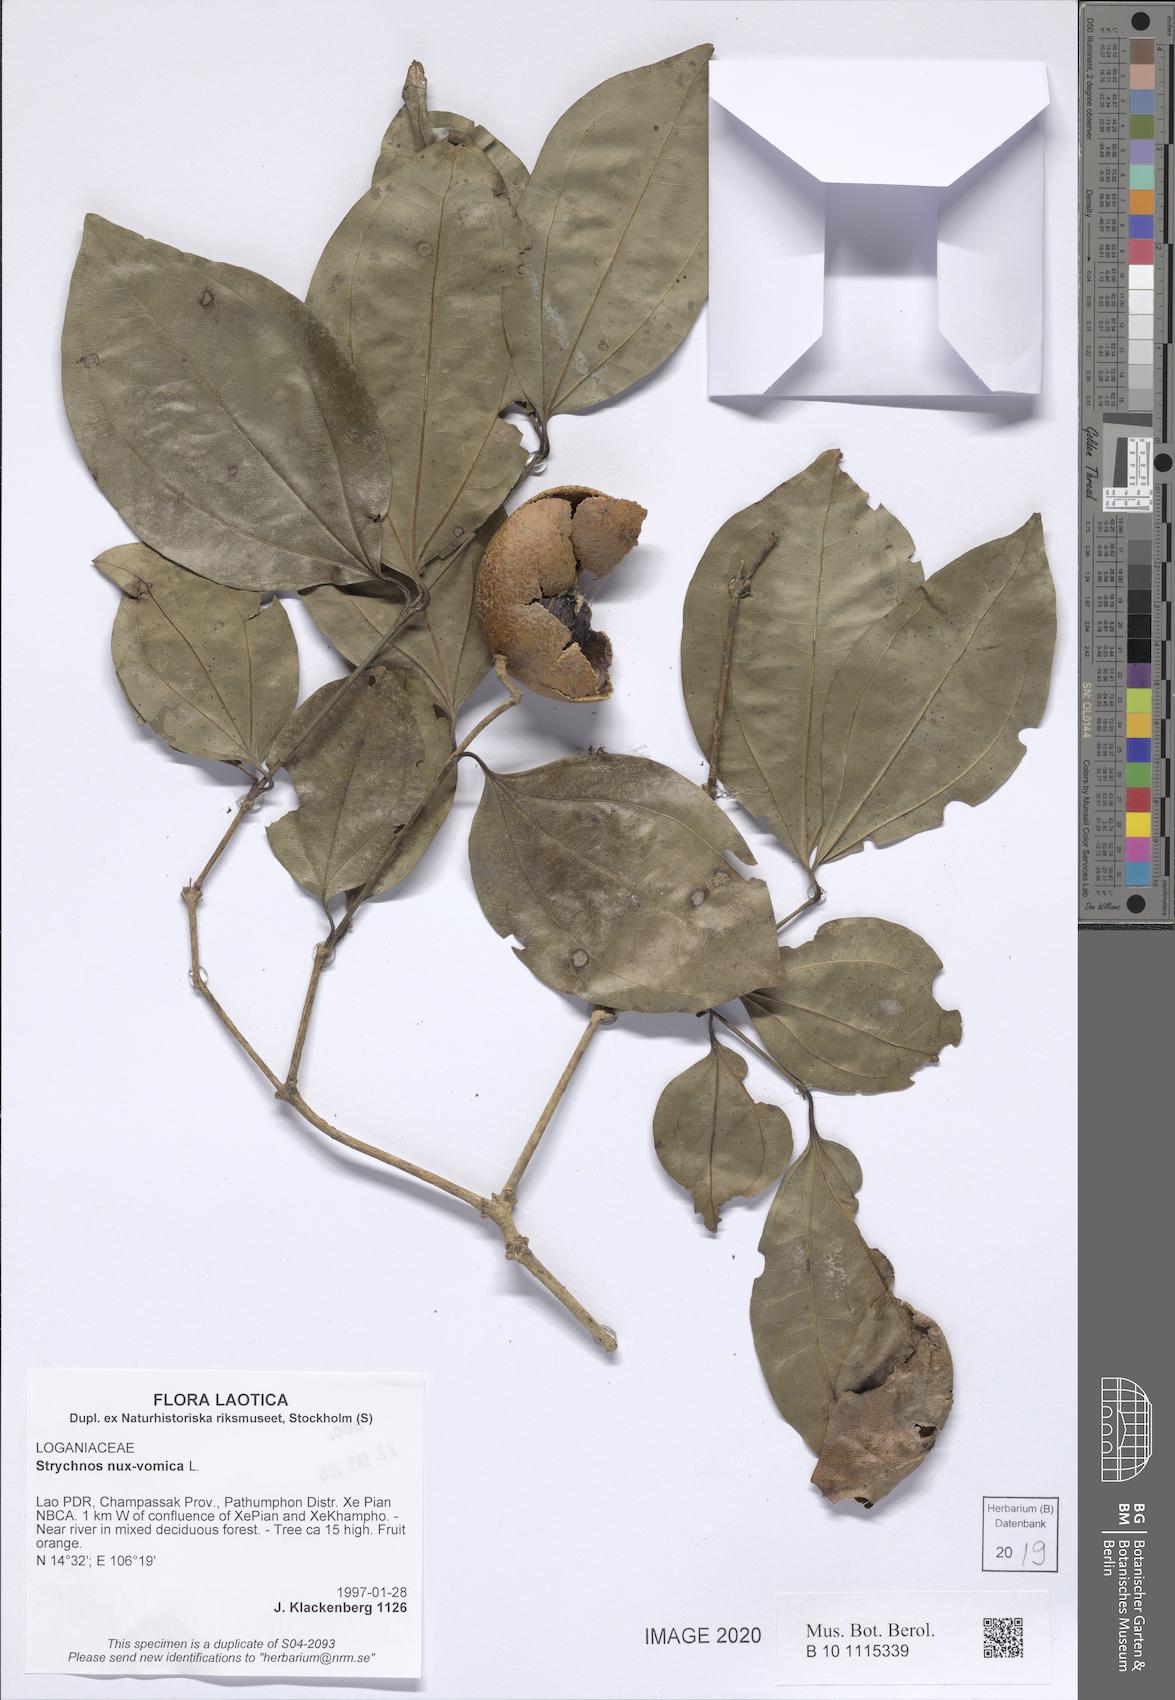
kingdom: Plantae
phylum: Tracheophyta
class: Magnoliopsida
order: Gentianales
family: Loganiaceae
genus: Strychnos
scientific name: Strychnos nux-vomica
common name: Strychninetree
